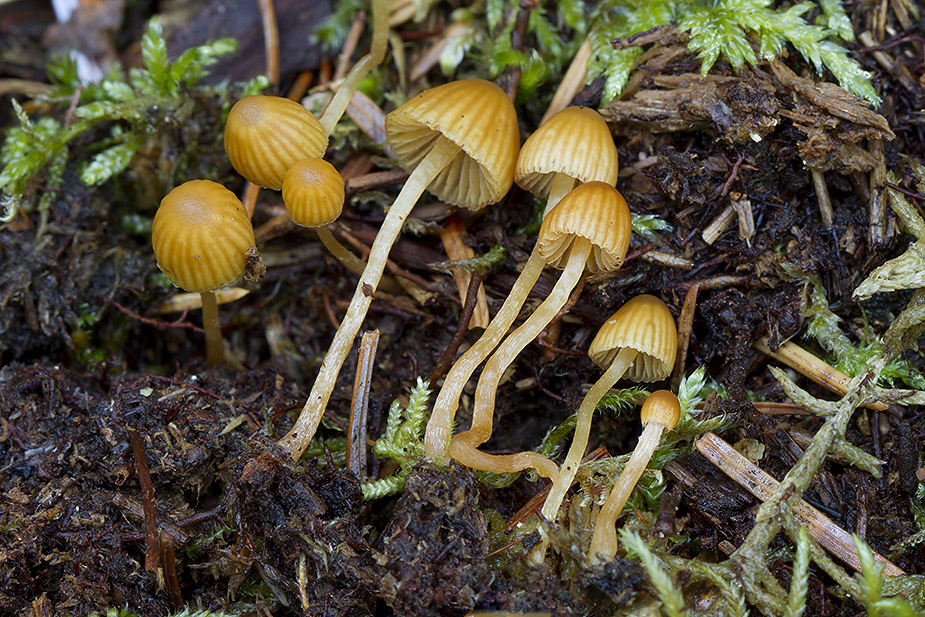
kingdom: Fungi
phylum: Basidiomycota
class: Agaricomycetes
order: Agaricales
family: Hymenogastraceae
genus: Galerina
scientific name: Galerina calyptrata
